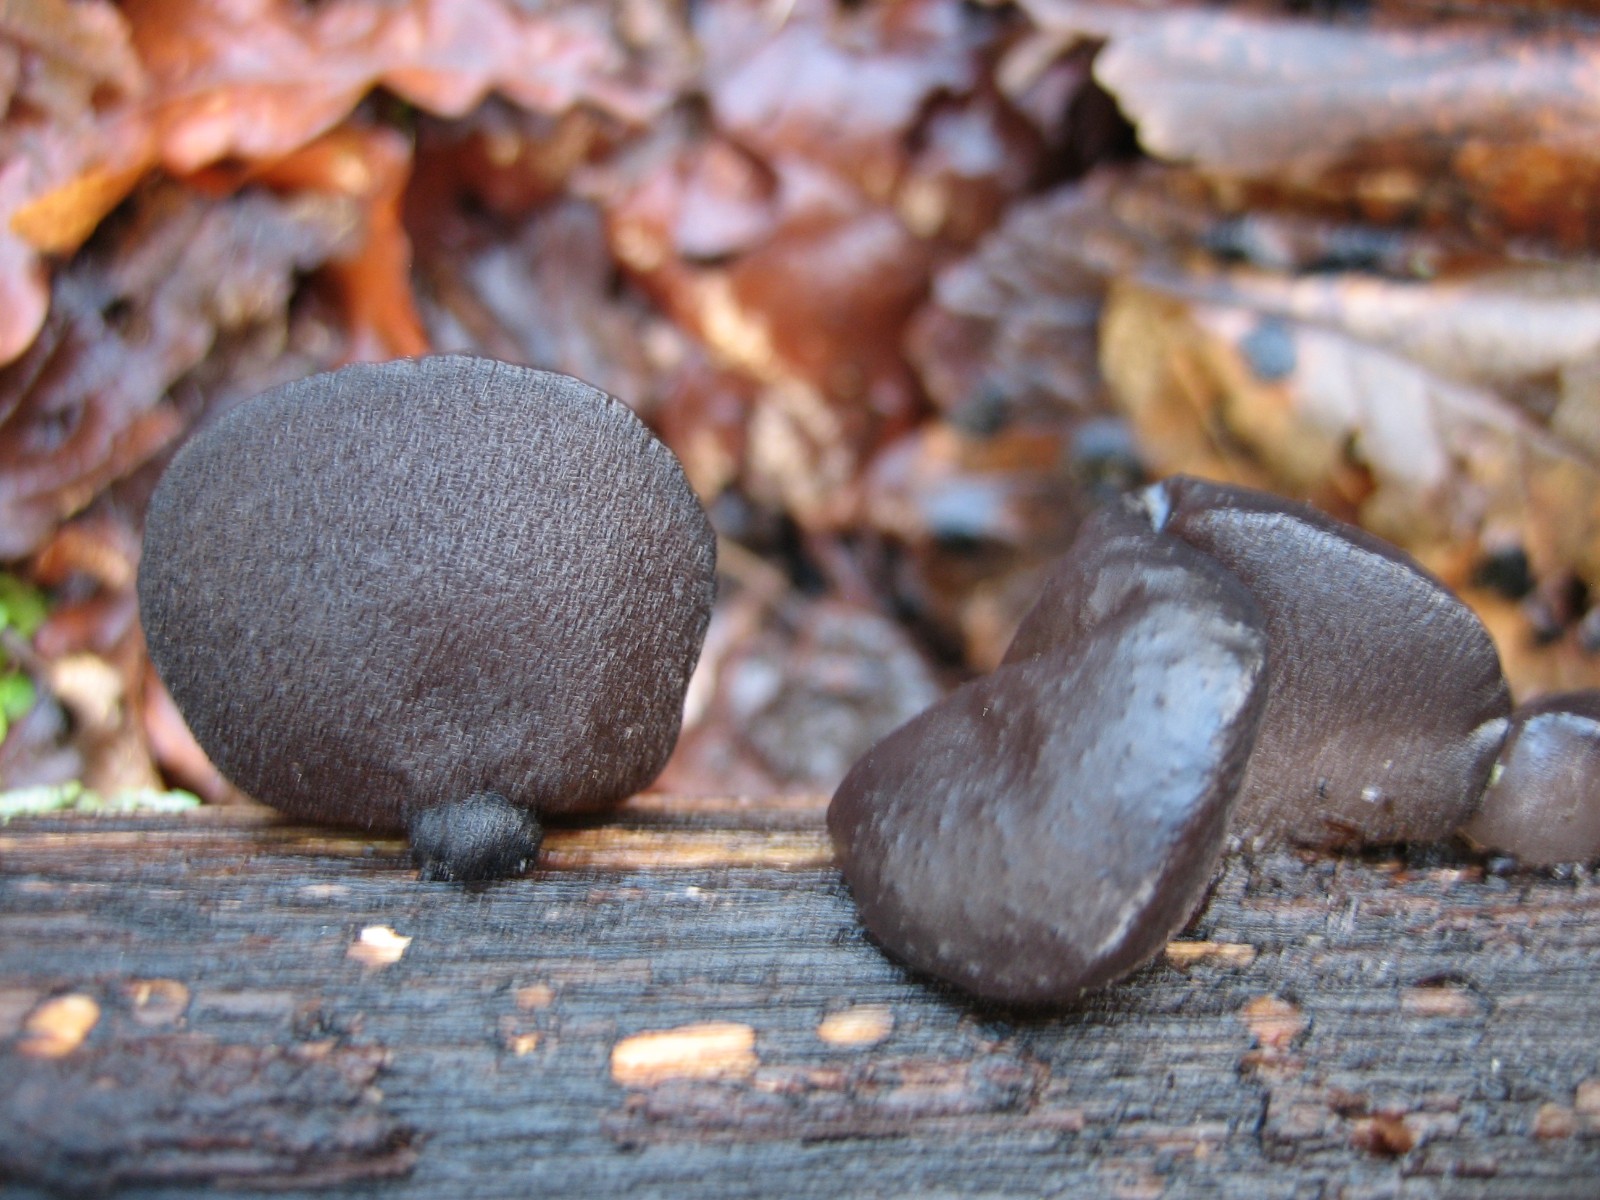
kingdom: Fungi
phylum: Basidiomycota
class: Agaricomycetes
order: Auriculariales
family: Auriculariaceae
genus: Exidia
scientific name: Exidia glandulosa
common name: ege-bævretop
